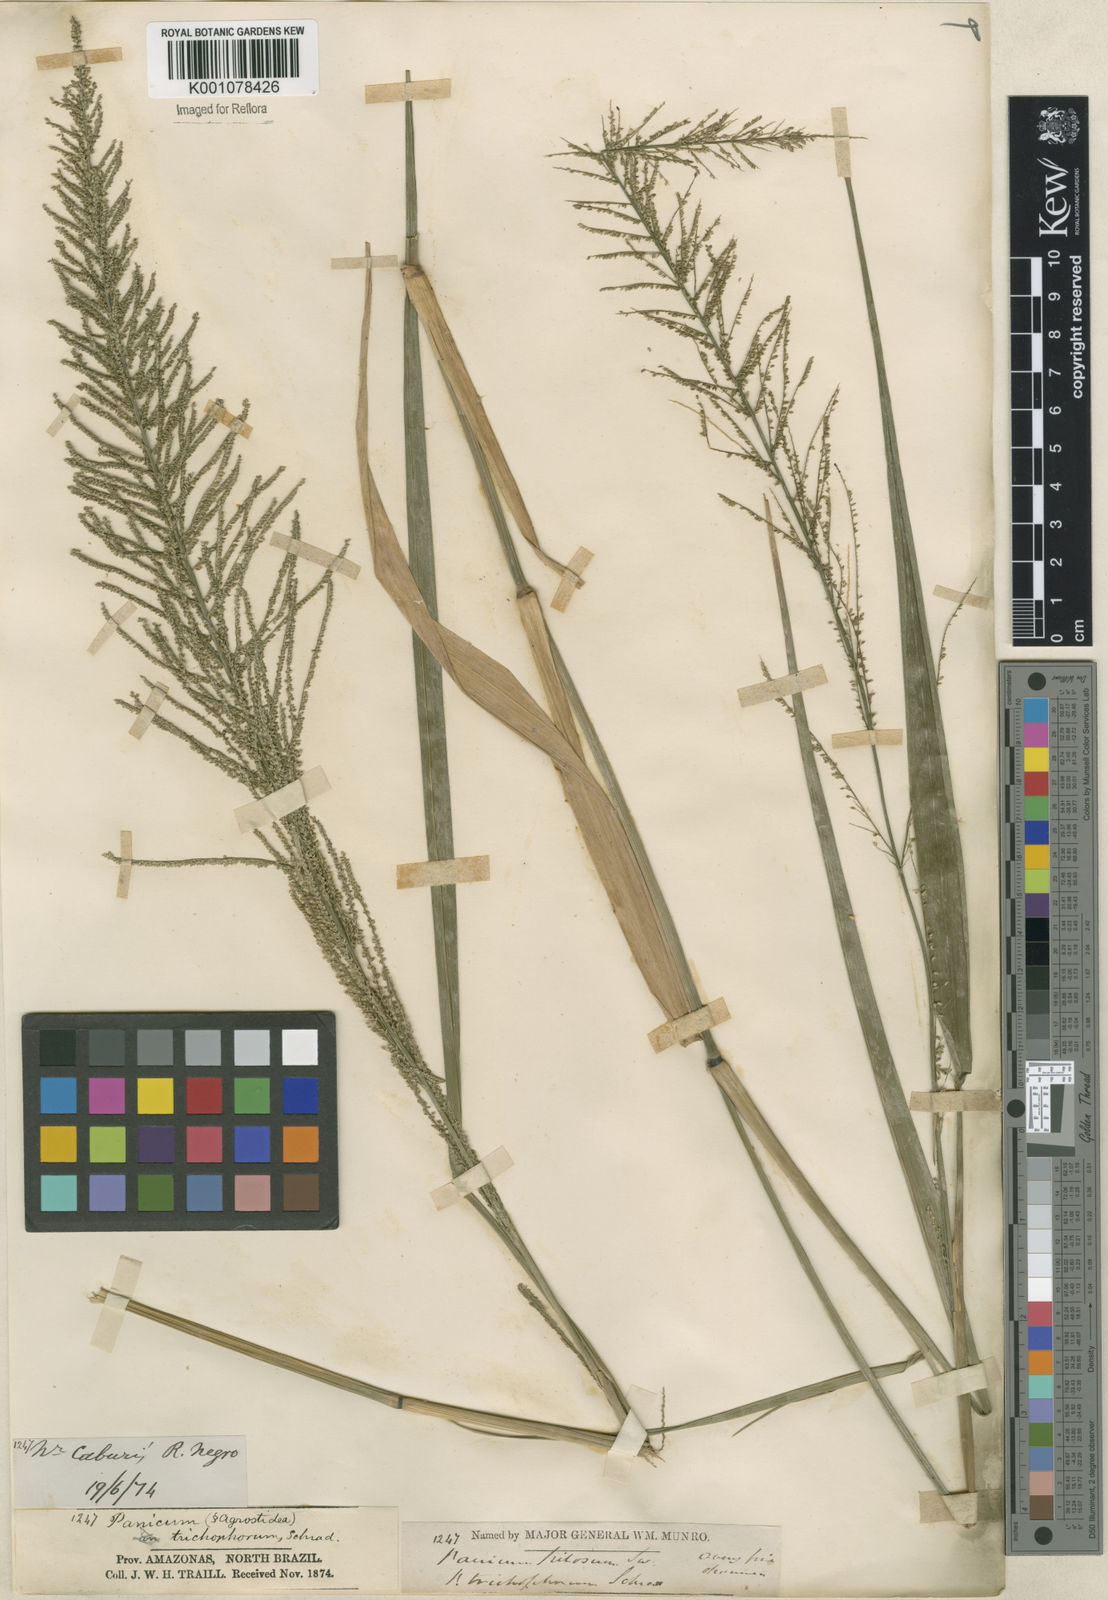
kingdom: Plantae
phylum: Tracheophyta
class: Liliopsida
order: Poales
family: Poaceae
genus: Rugoloa
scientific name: Rugoloa pilosa
